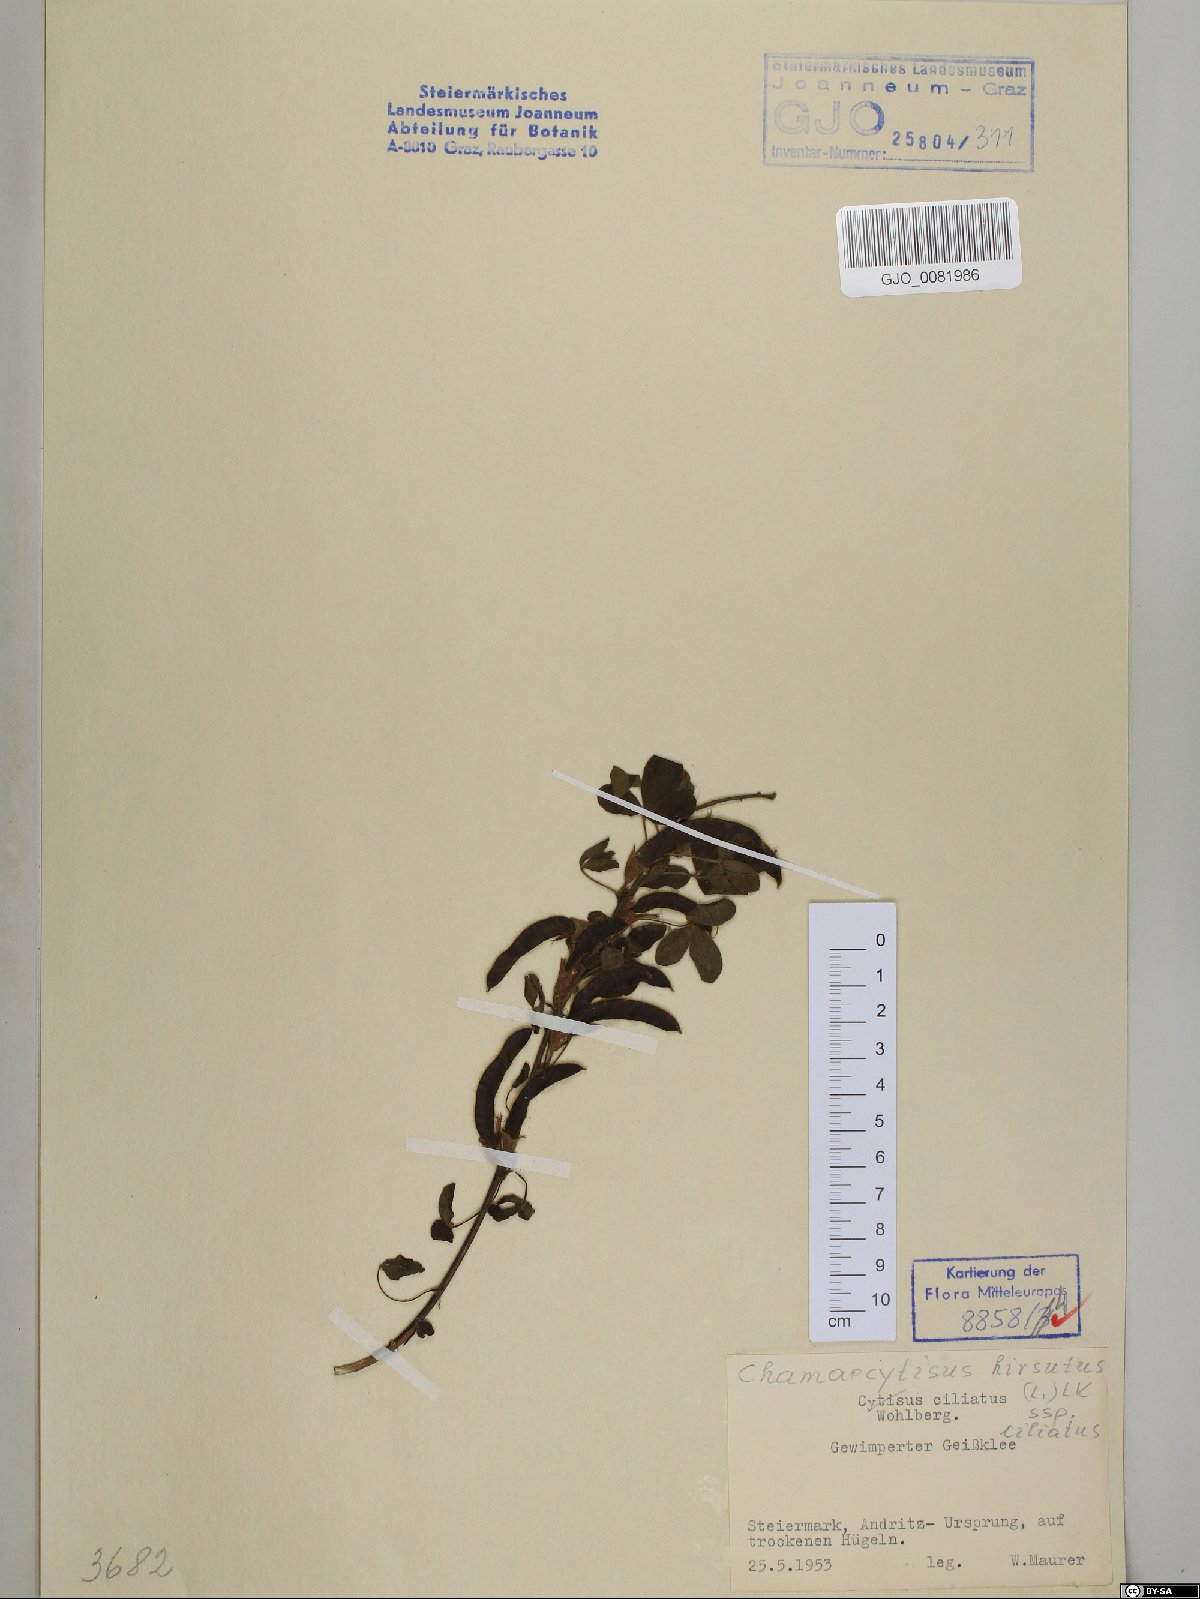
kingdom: Plantae
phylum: Tracheophyta
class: Magnoliopsida
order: Fabales
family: Fabaceae
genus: Chamaecytisus
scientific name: Chamaecytisus hirsutus
